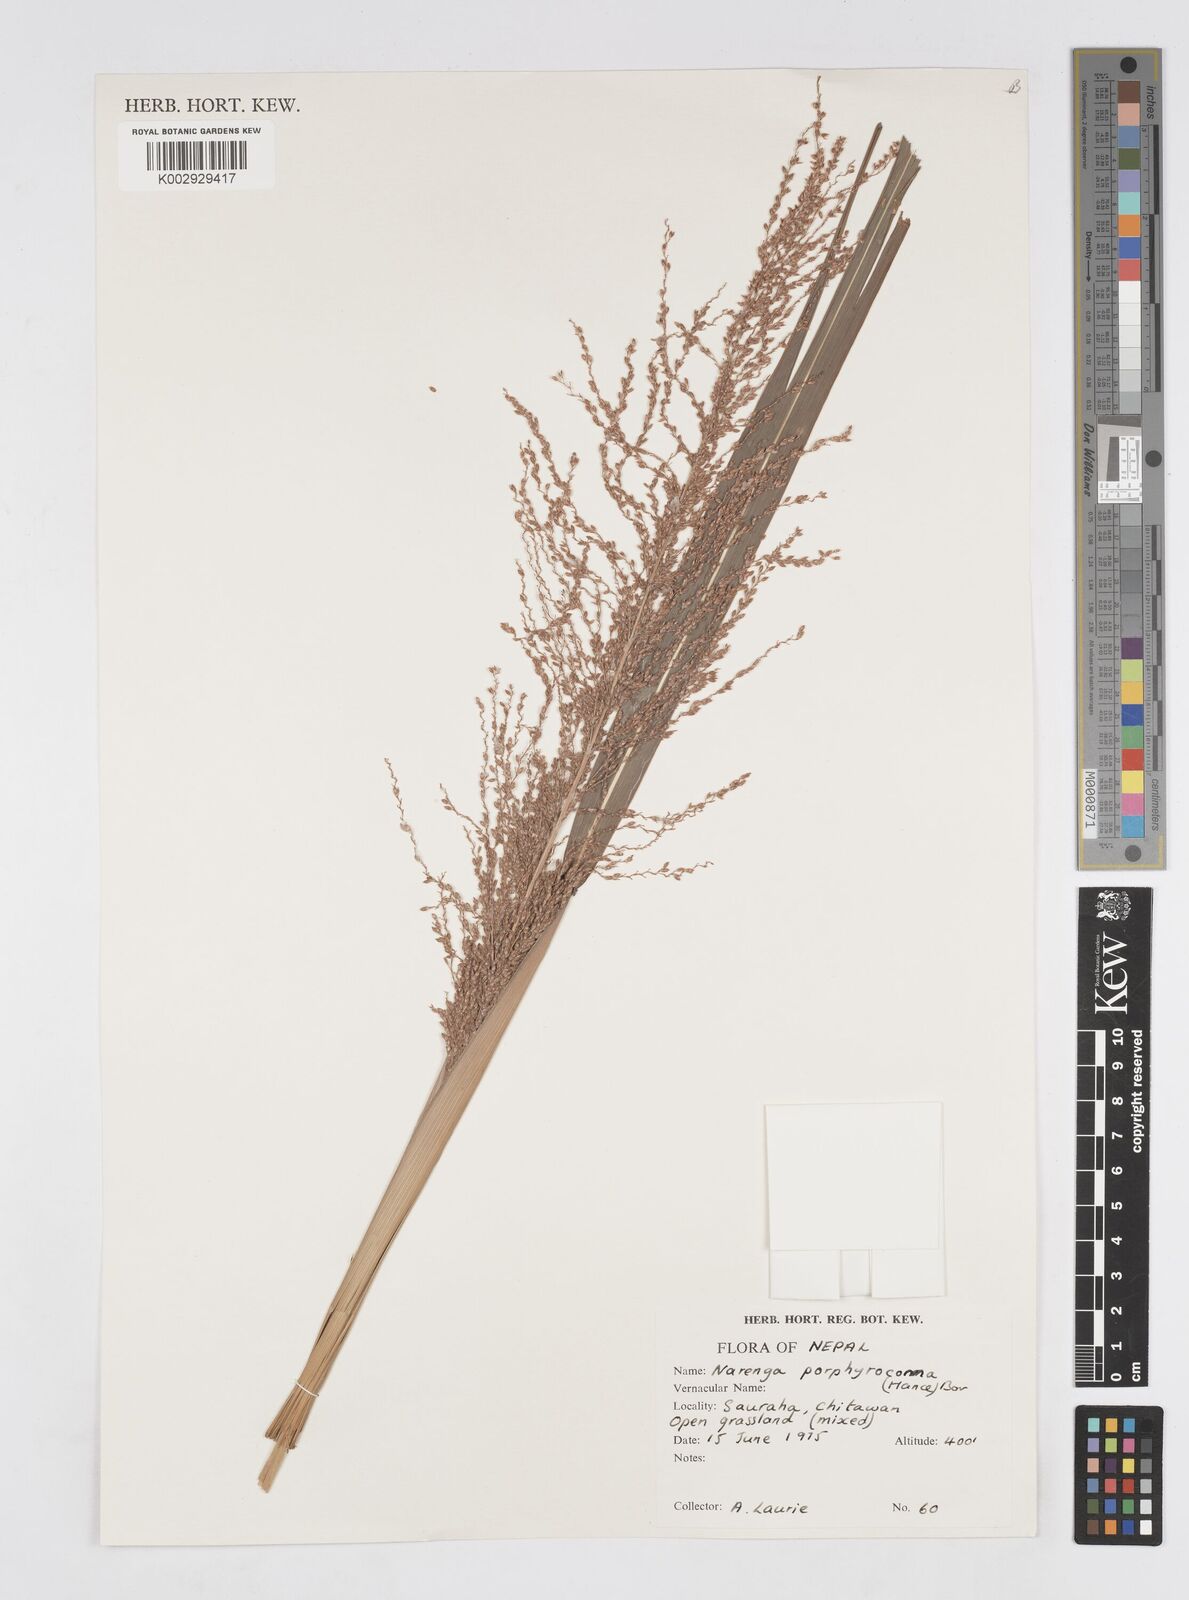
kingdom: Plantae
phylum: Tracheophyta
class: Liliopsida
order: Poales
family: Poaceae
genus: Narenga
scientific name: Narenga porphyrocoma
